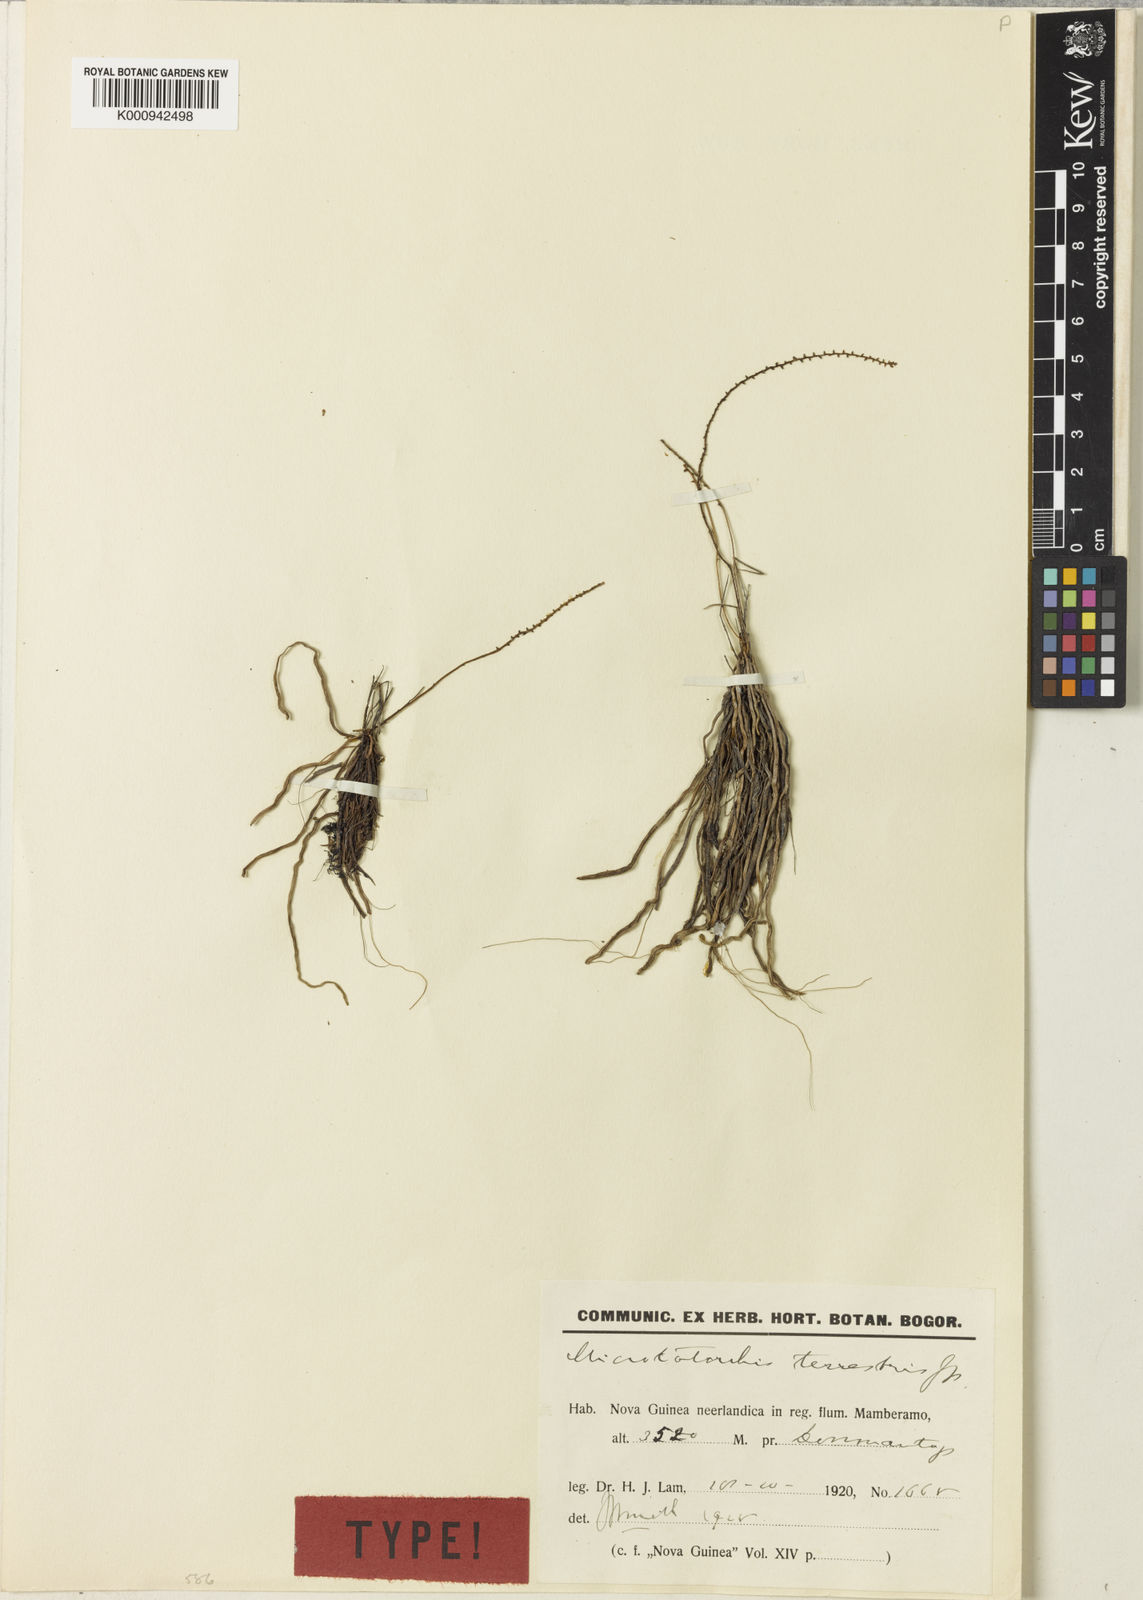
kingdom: Plantae
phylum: Tracheophyta
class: Liliopsida
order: Asparagales
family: Orchidaceae
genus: Taeniophyllum
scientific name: Taeniophyllum terrestre
